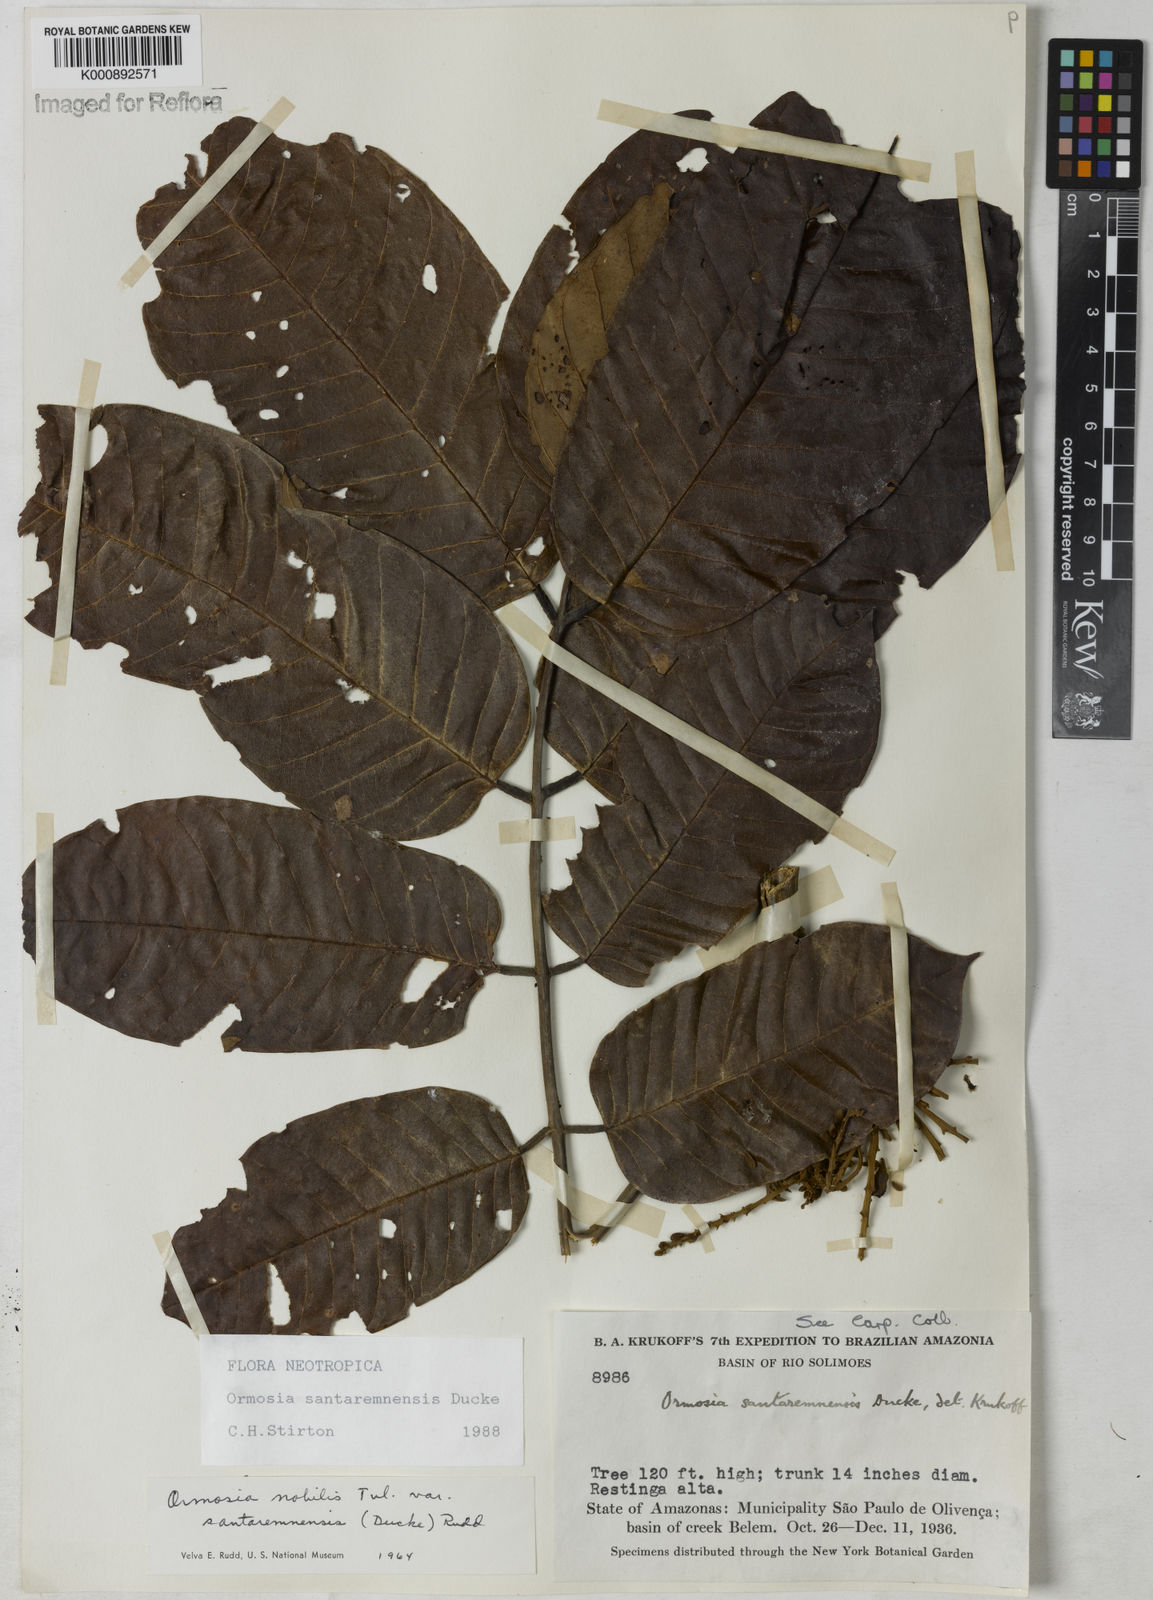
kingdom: Plantae
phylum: Tracheophyta
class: Magnoliopsida
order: Fabales
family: Fabaceae
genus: Ormosia
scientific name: Ormosia santaremnensis
